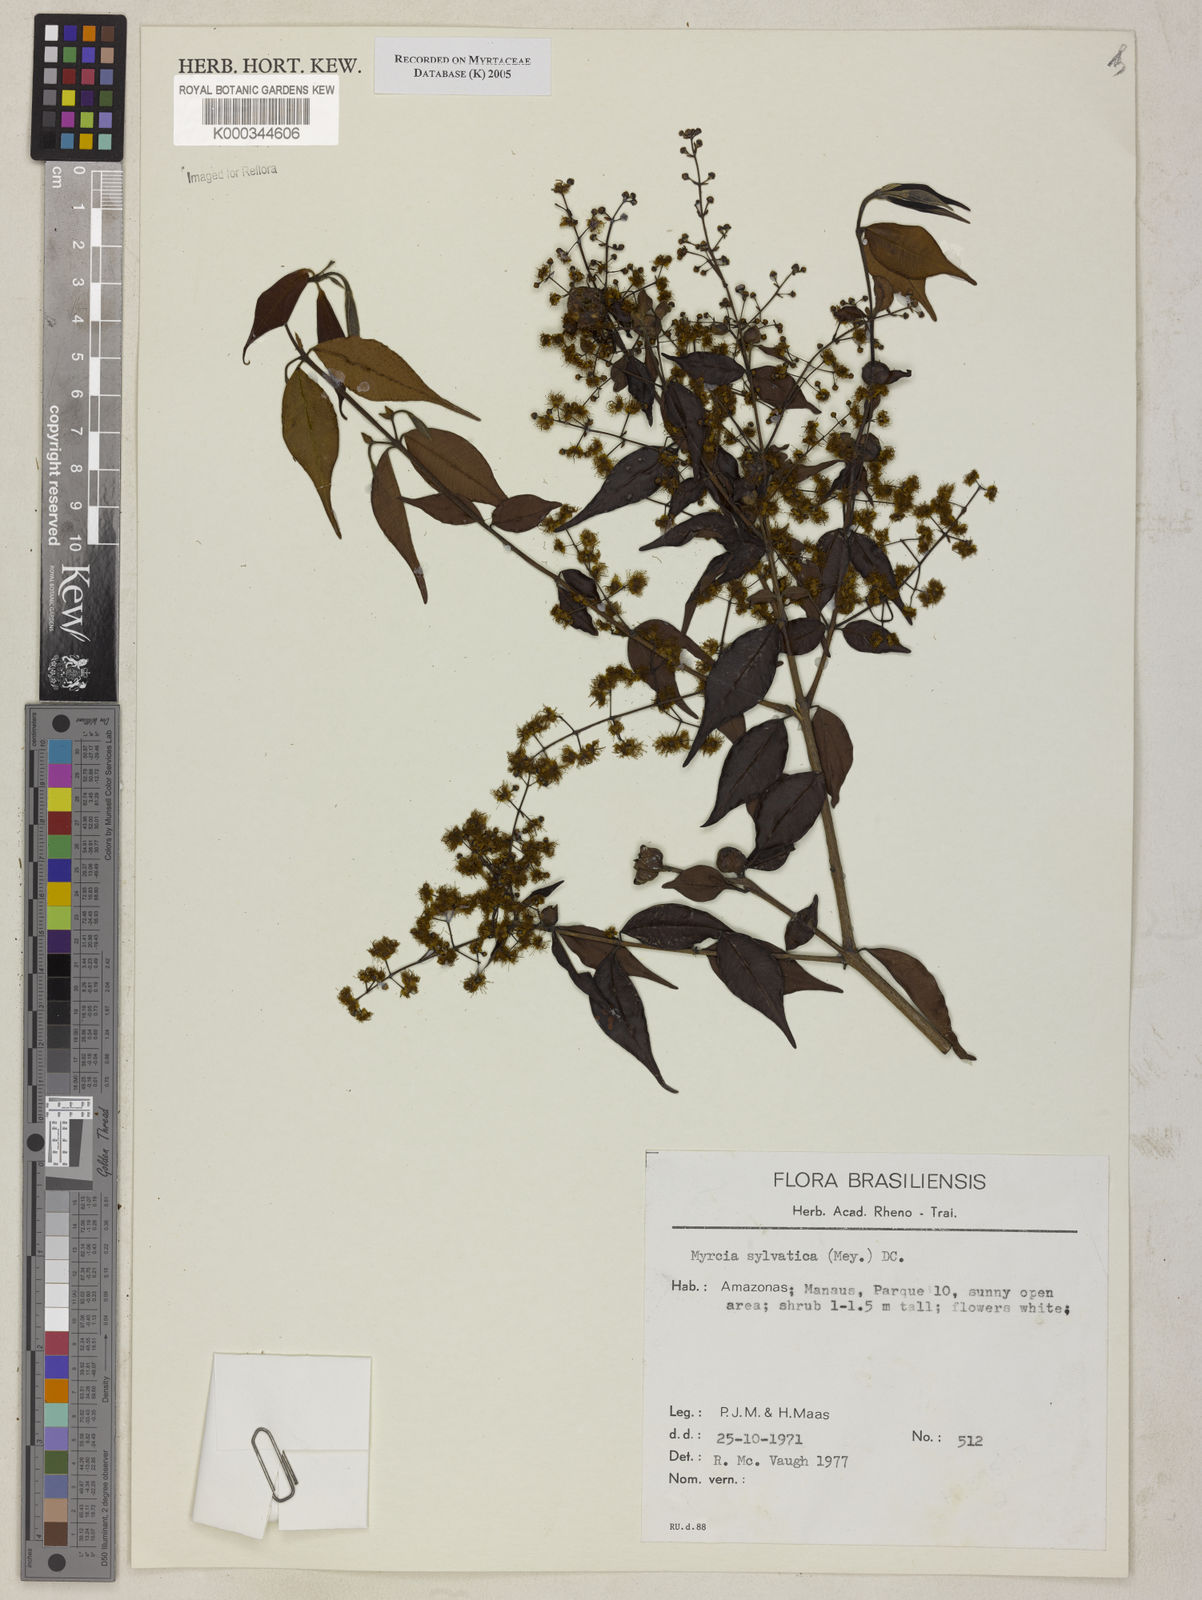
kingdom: Plantae
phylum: Tracheophyta
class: Magnoliopsida
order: Myrtales
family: Myrtaceae
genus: Myrcia
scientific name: Myrcia sylvatica
